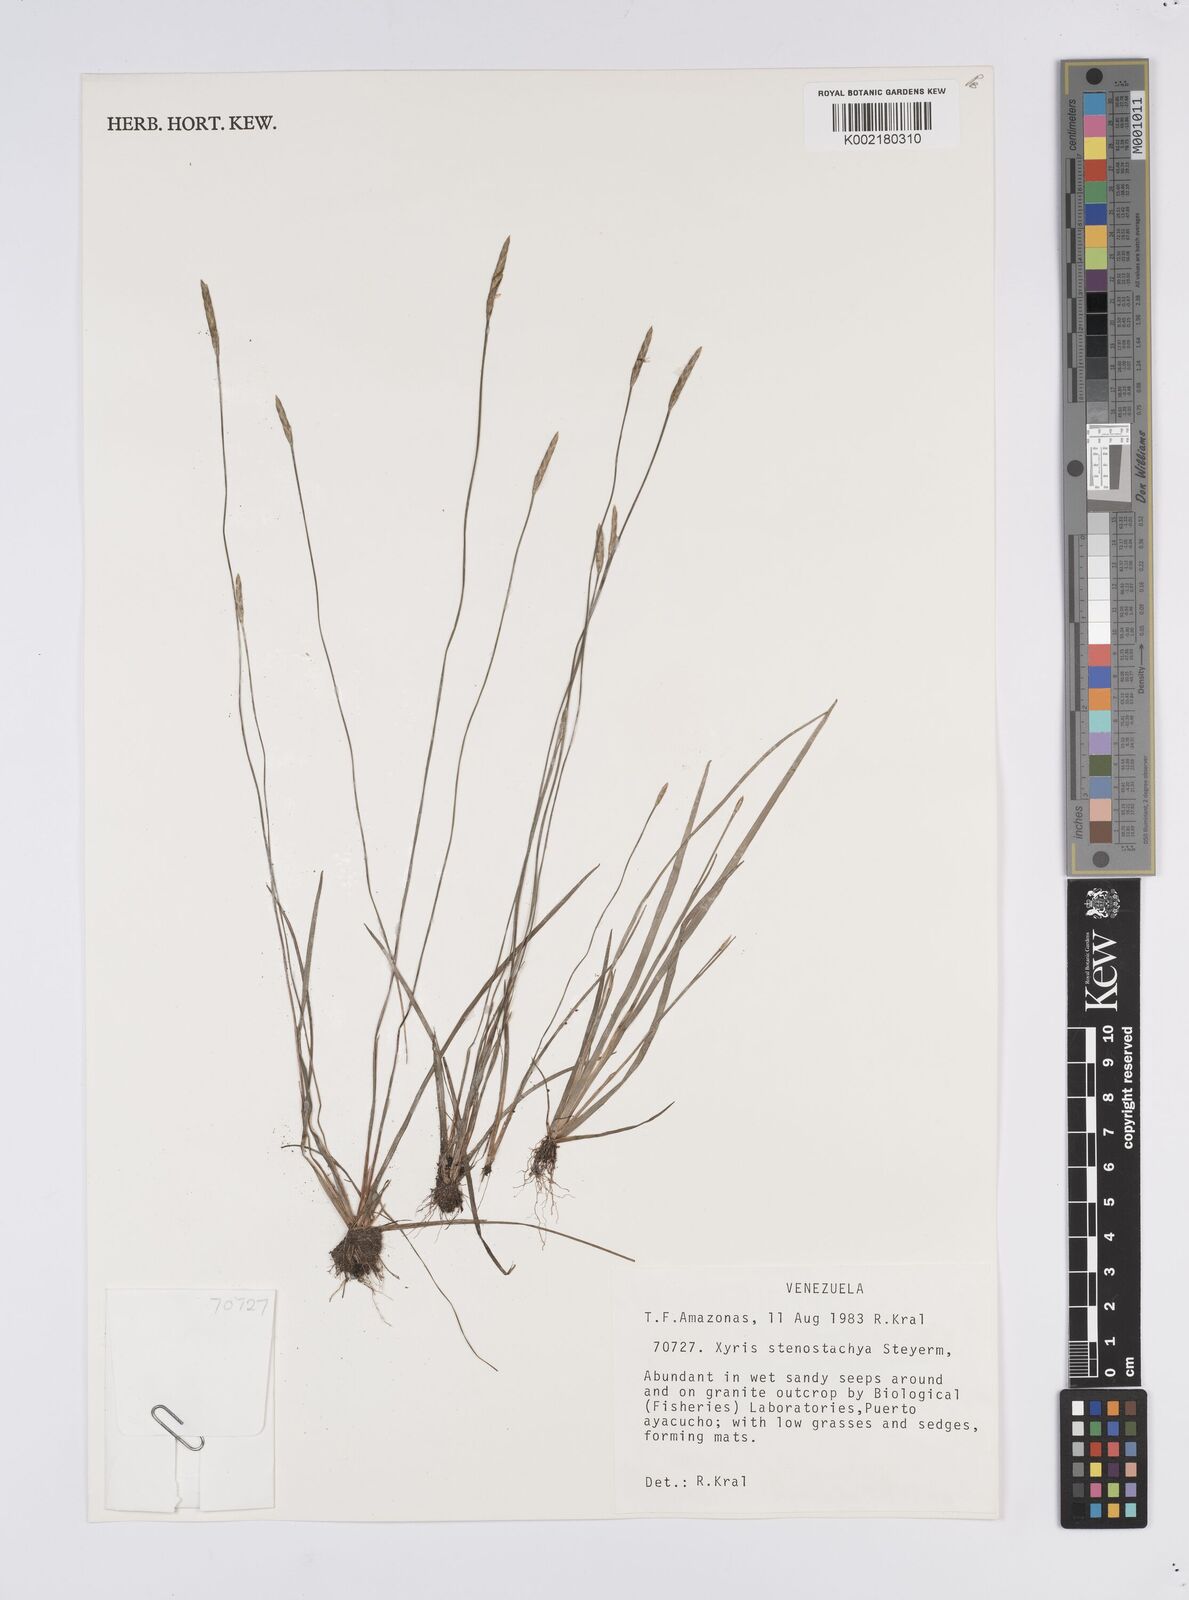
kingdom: Plantae
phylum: Tracheophyta
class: Liliopsida
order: Poales
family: Xyridaceae
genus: Xyris
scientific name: Xyris stenostachya
